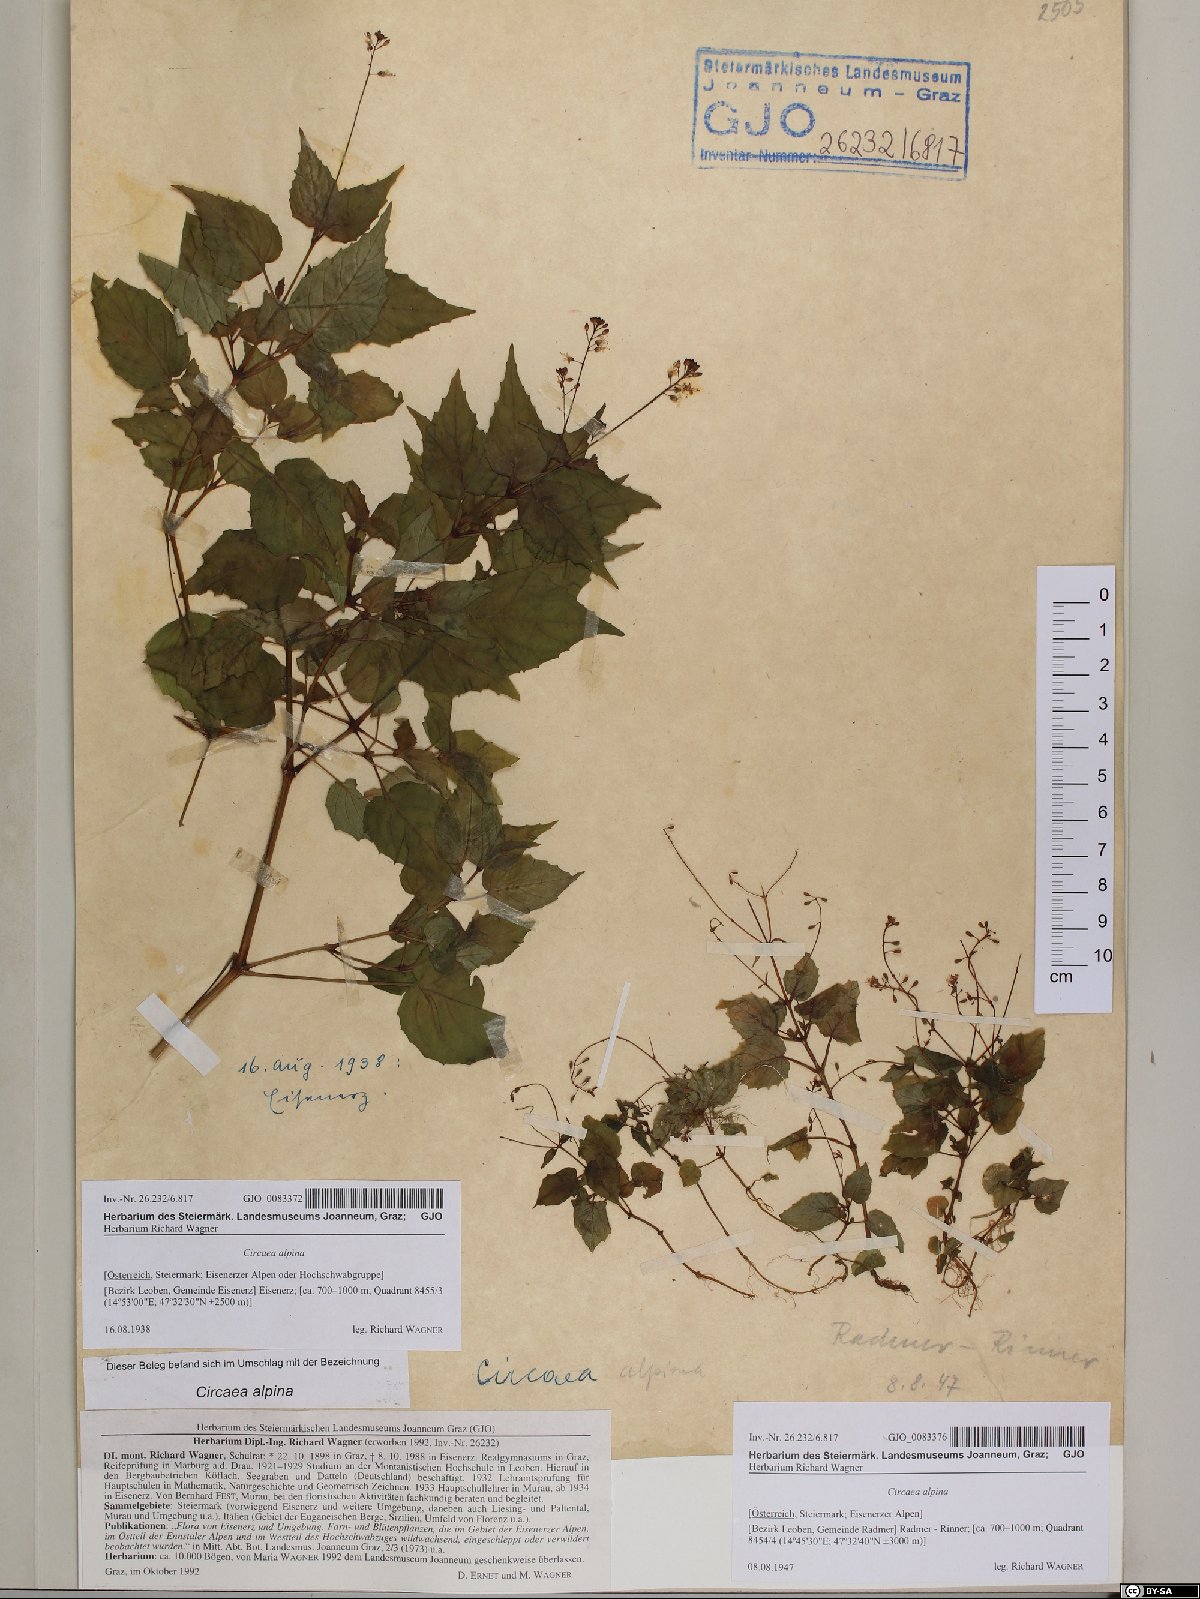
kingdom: Plantae
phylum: Tracheophyta
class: Magnoliopsida
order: Myrtales
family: Onagraceae
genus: Circaea
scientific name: Circaea alpina
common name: Alpine enchanter's-nightshade
